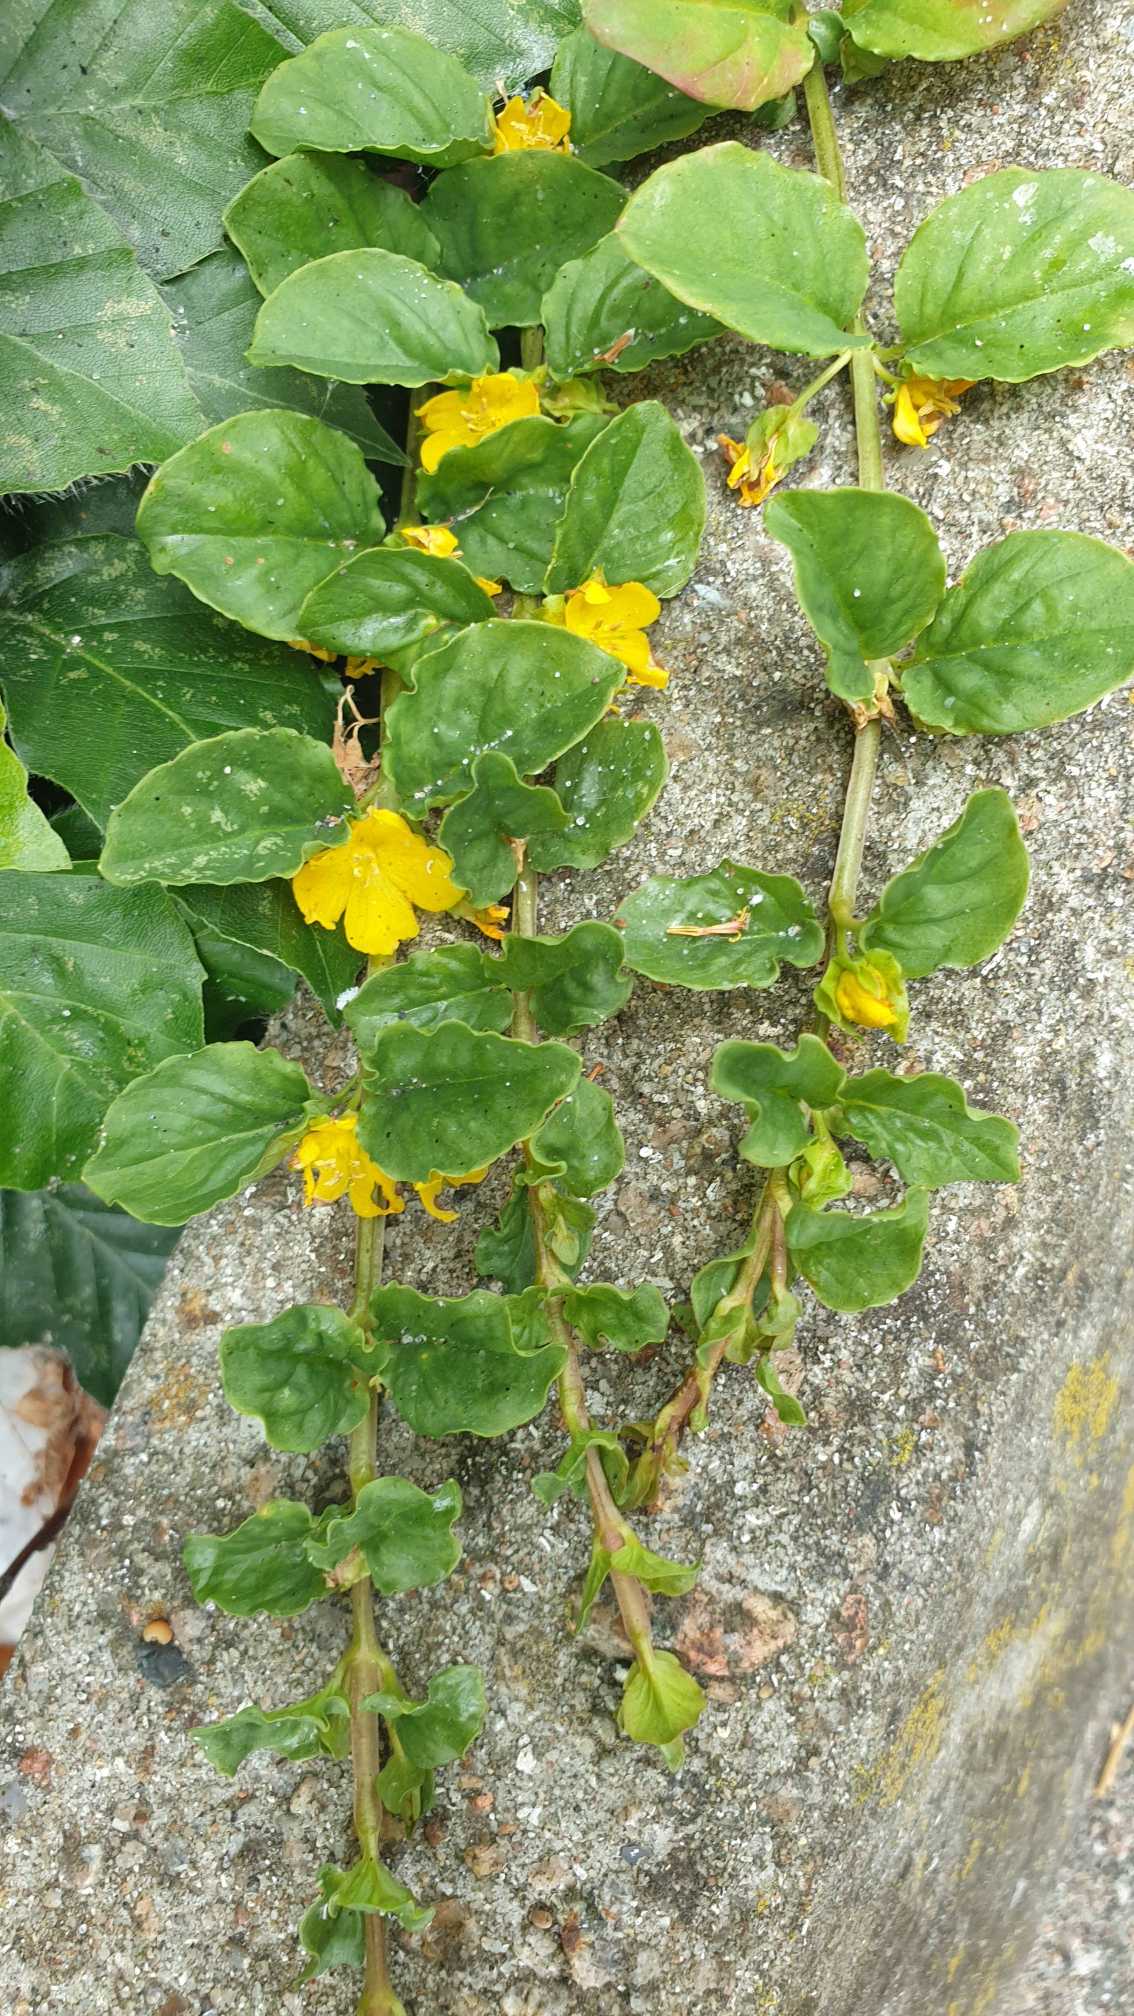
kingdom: Plantae
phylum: Tracheophyta
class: Magnoliopsida
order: Ericales
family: Primulaceae
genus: Lysimachia
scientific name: Lysimachia nummularia
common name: Pengebladet fredløs
